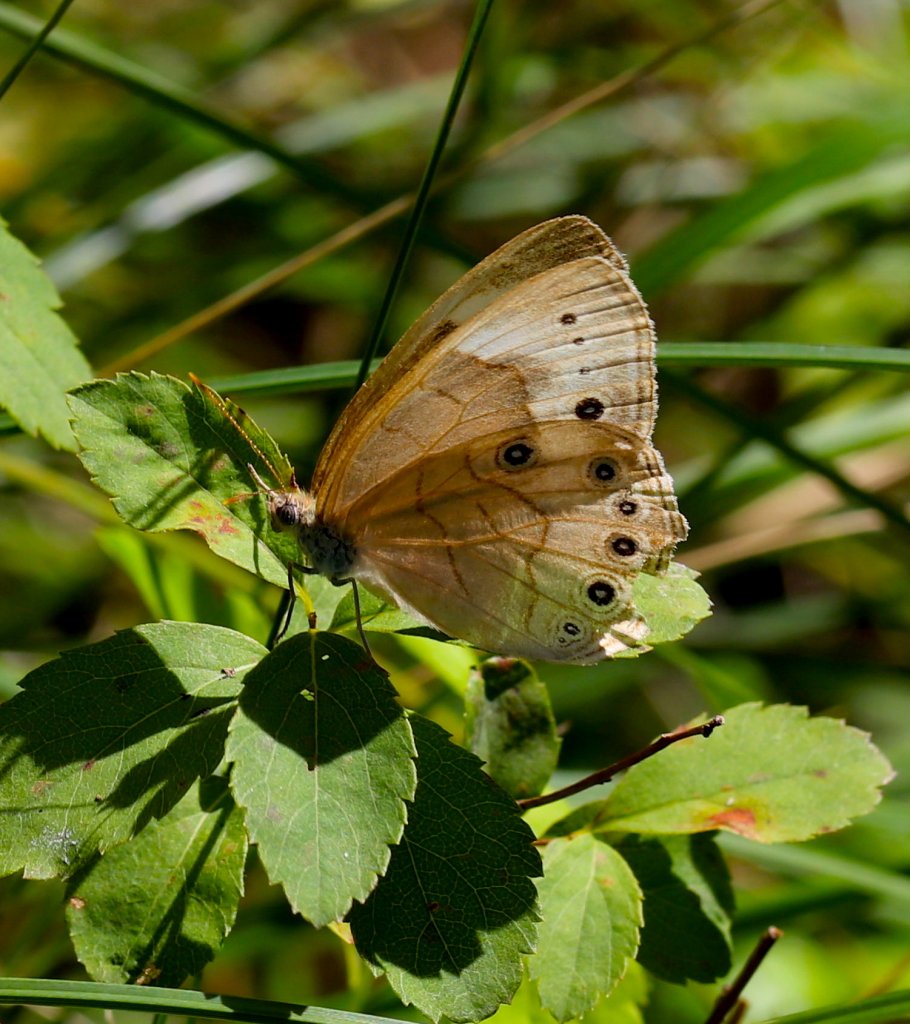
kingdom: Animalia
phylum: Arthropoda
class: Insecta
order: Lepidoptera
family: Nymphalidae
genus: Lethe
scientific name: Lethe eurydice
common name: Appalachian Eyed Brown
